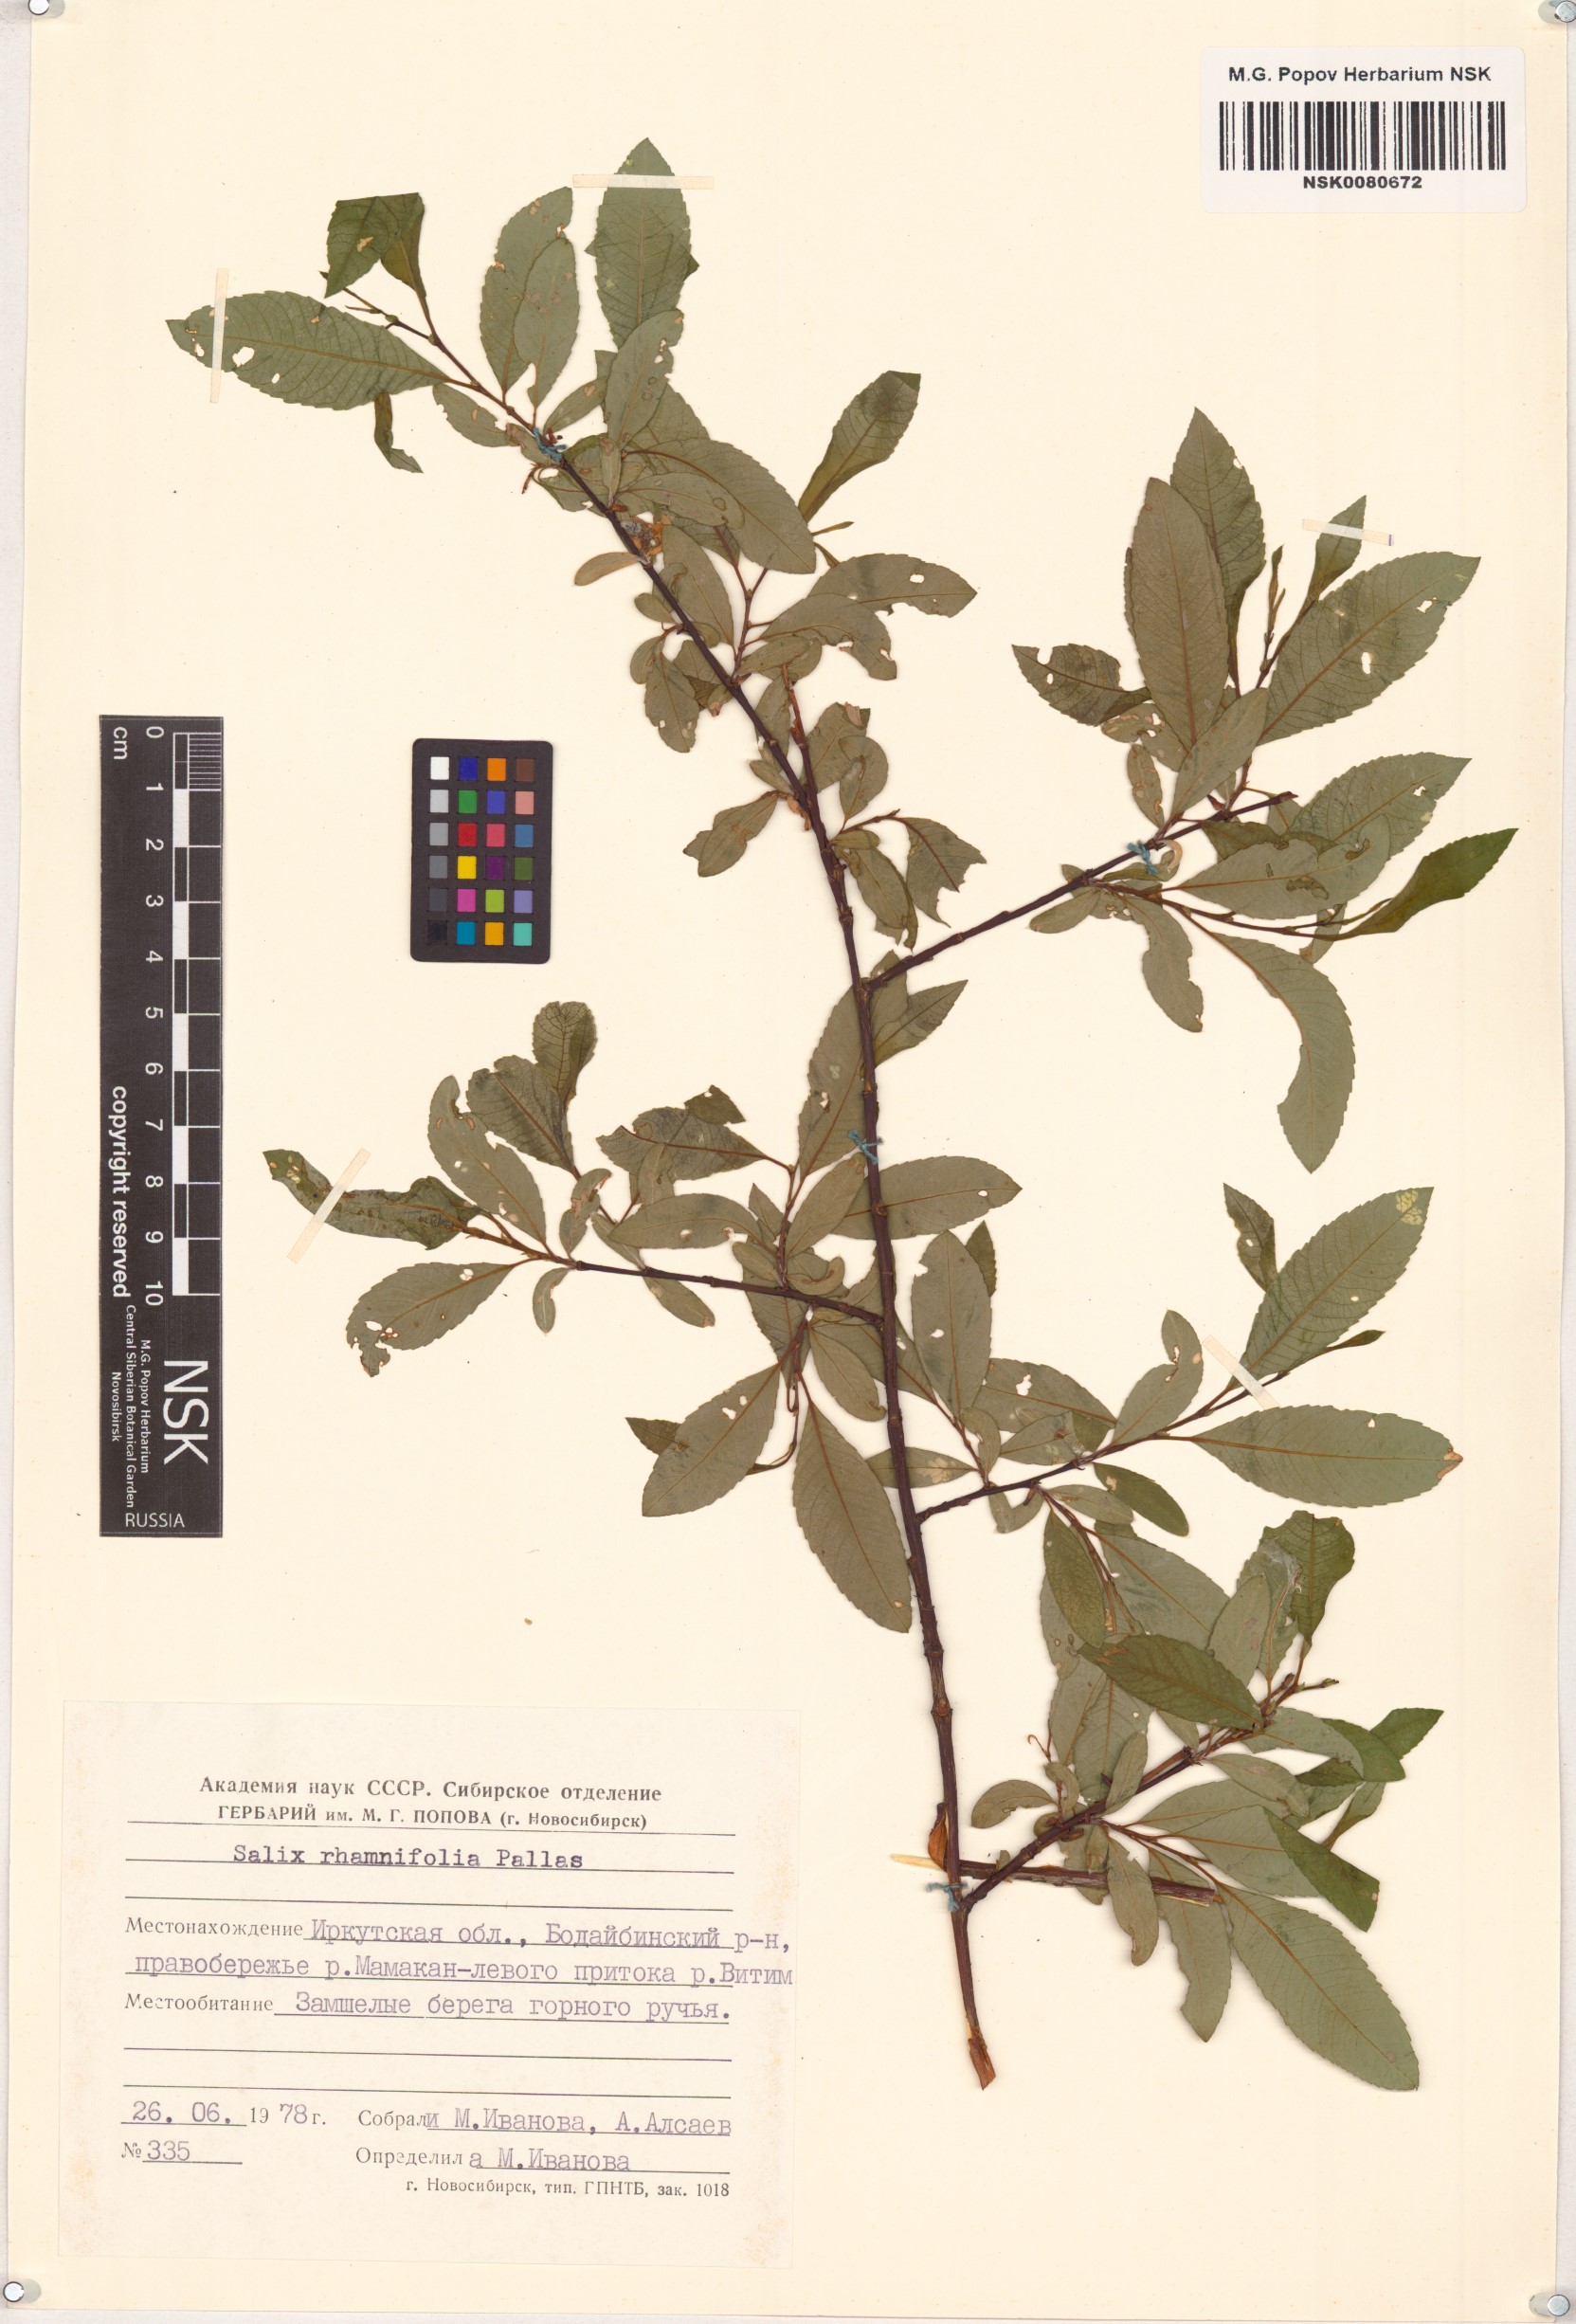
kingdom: Plantae
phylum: Tracheophyta
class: Magnoliopsida
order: Malpighiales
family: Salicaceae
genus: Salix
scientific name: Salix rhamnifolia
